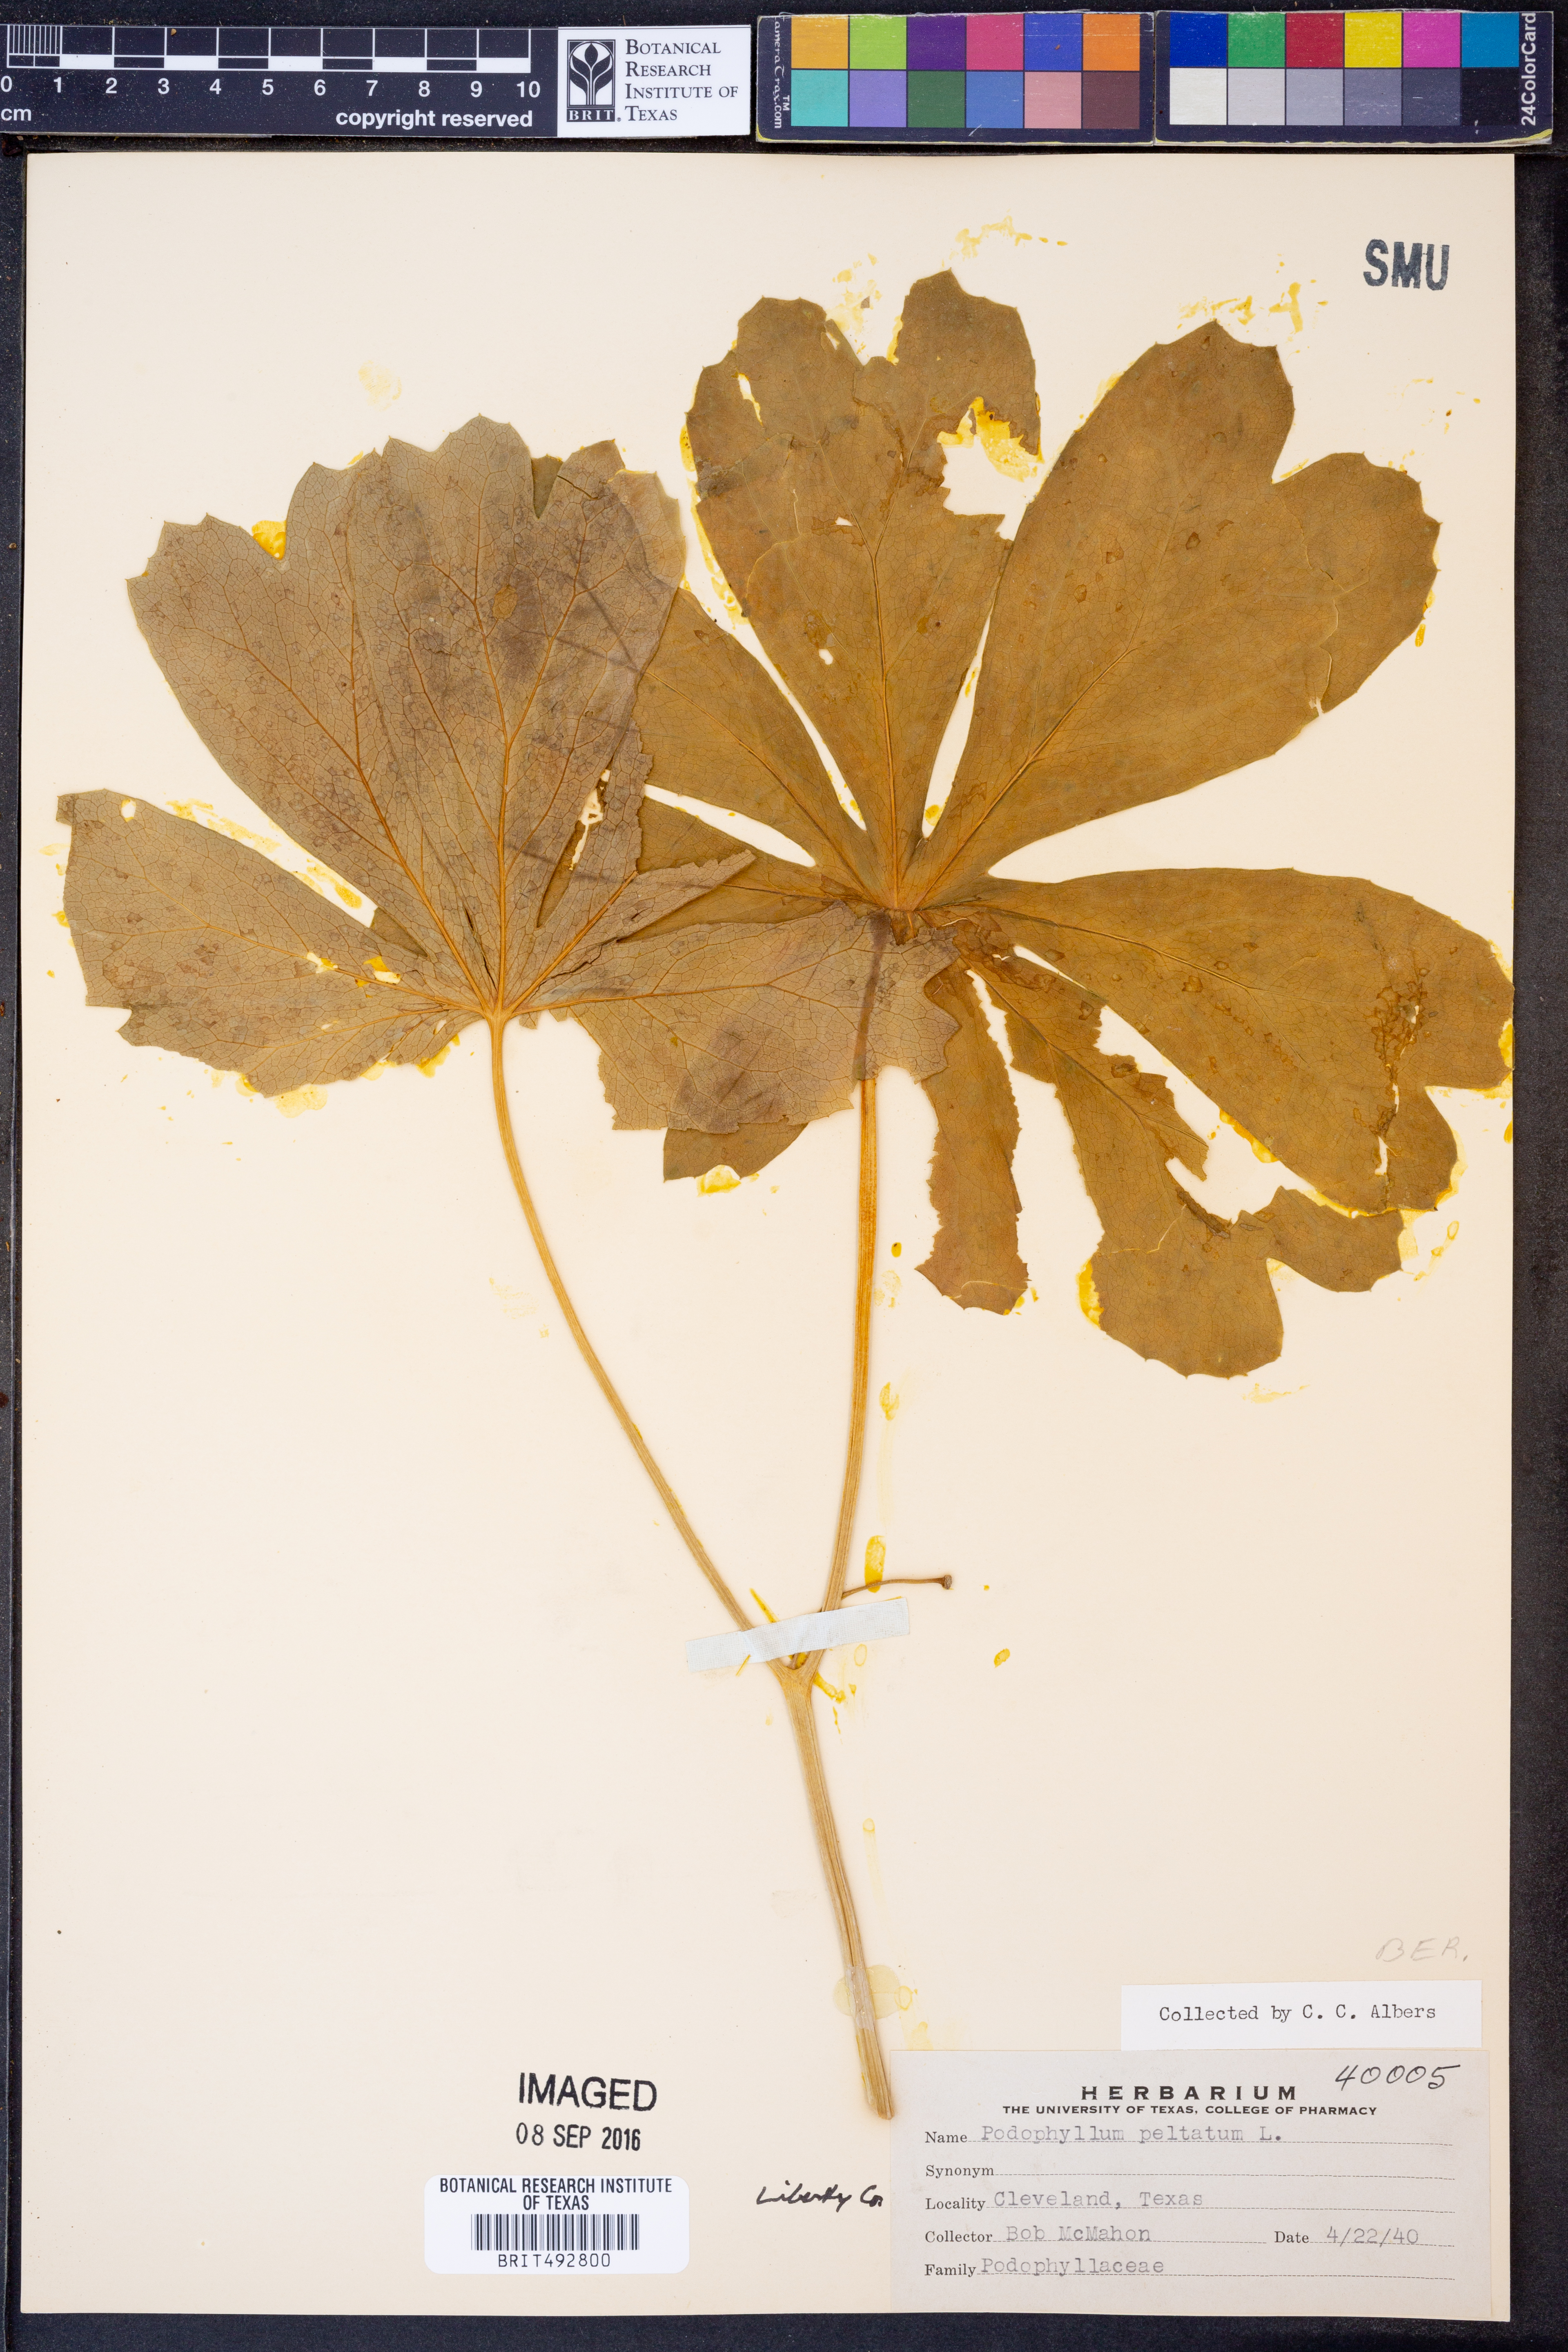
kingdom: Plantae
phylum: Tracheophyta
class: Magnoliopsida
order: Ranunculales
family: Berberidaceae
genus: Podophyllum
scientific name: Podophyllum peltatum
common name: Wild mandrake
